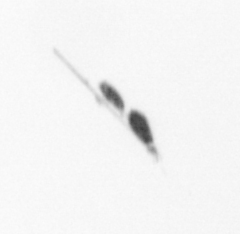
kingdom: Animalia
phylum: Arthropoda
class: Copepoda
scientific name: Copepoda
